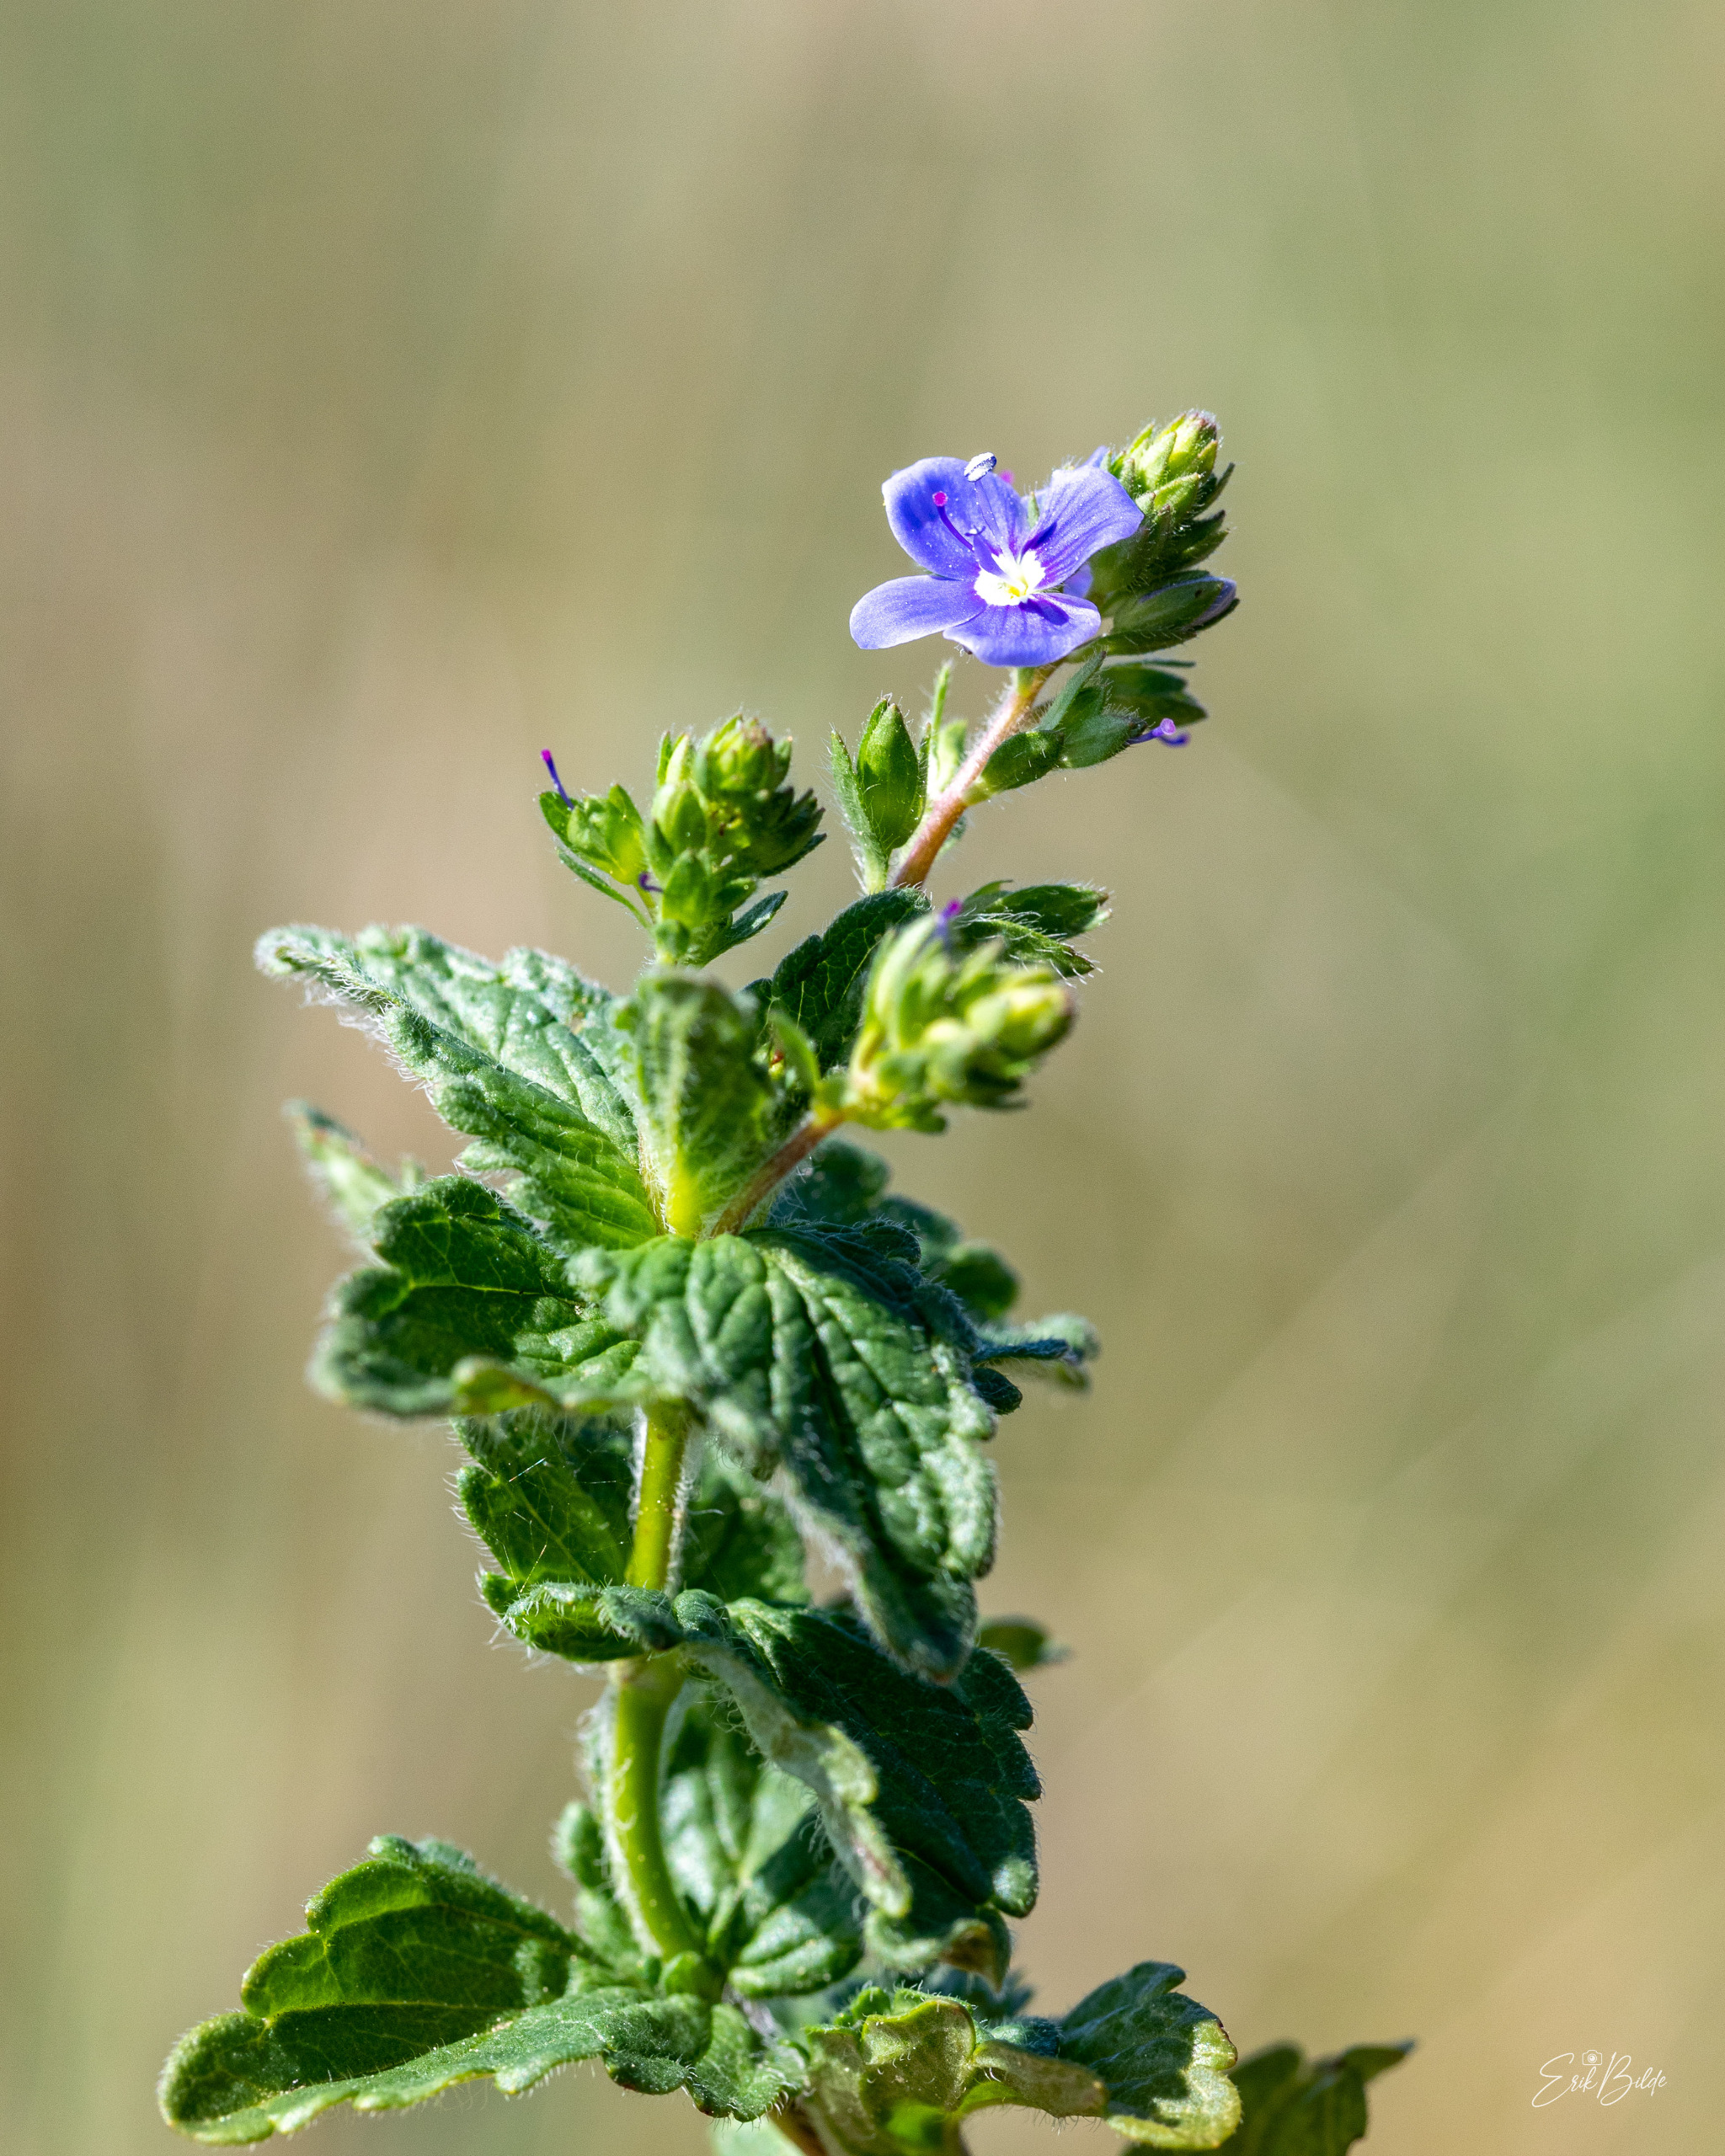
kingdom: Plantae
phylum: Tracheophyta
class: Magnoliopsida
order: Lamiales
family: Plantaginaceae
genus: Veronica
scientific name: Veronica chamaedrys
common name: Tveskægget ærenpris
